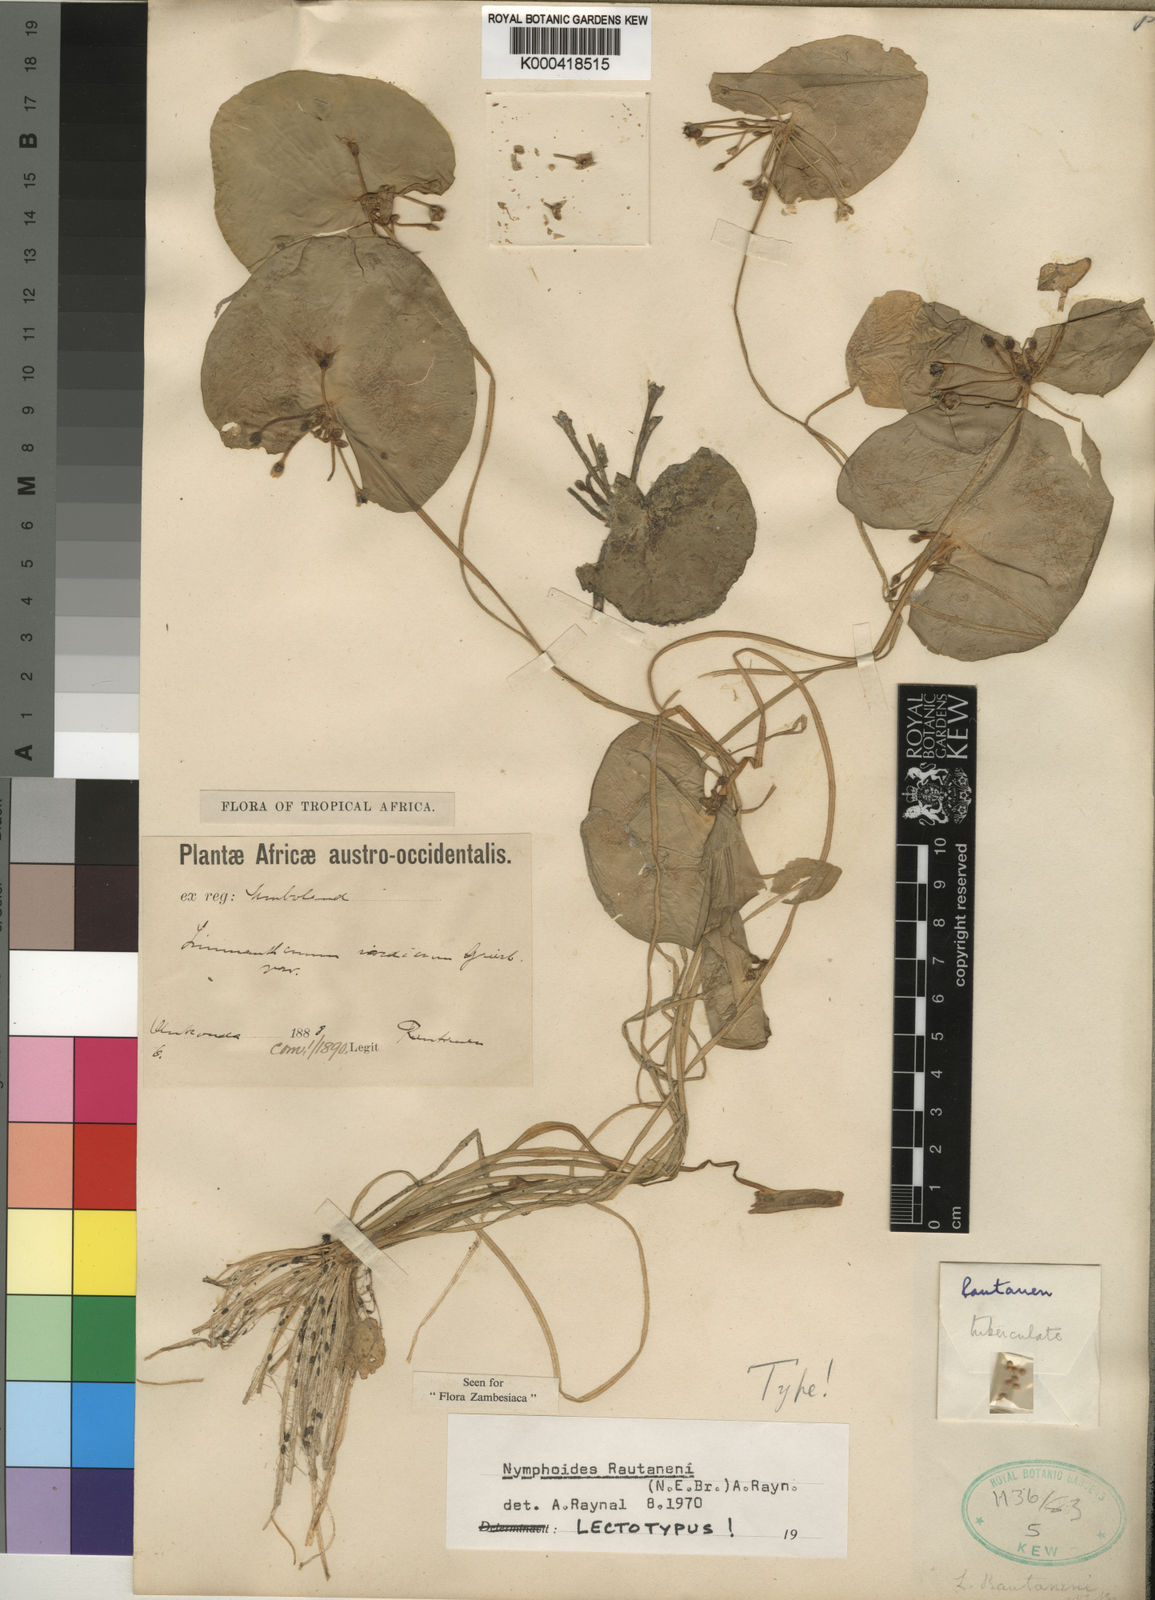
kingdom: Plantae
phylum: Tracheophyta
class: Magnoliopsida
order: Asterales
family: Menyanthaceae
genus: Nymphoides
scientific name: Nymphoides rautanenii
